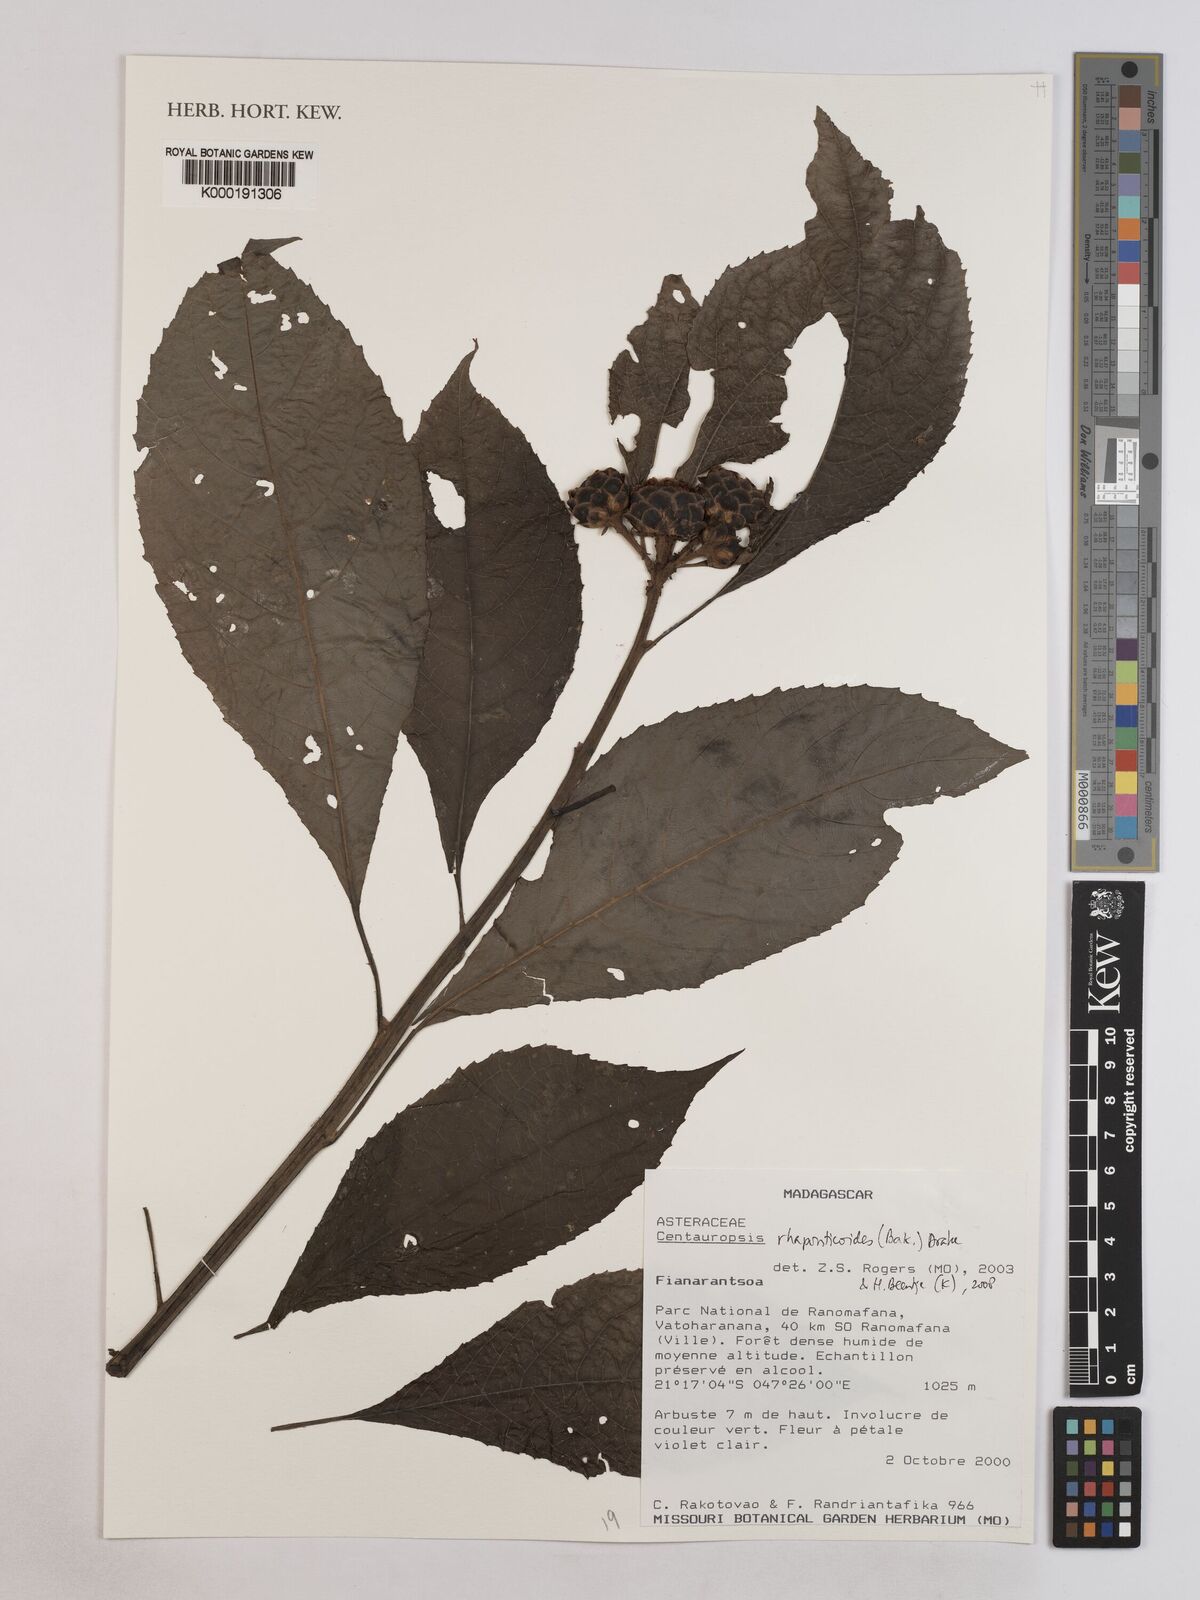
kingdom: Plantae
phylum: Tracheophyta
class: Magnoliopsida
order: Asterales
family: Asteraceae
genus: Centauropsis
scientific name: Centauropsis rhaponticoides
